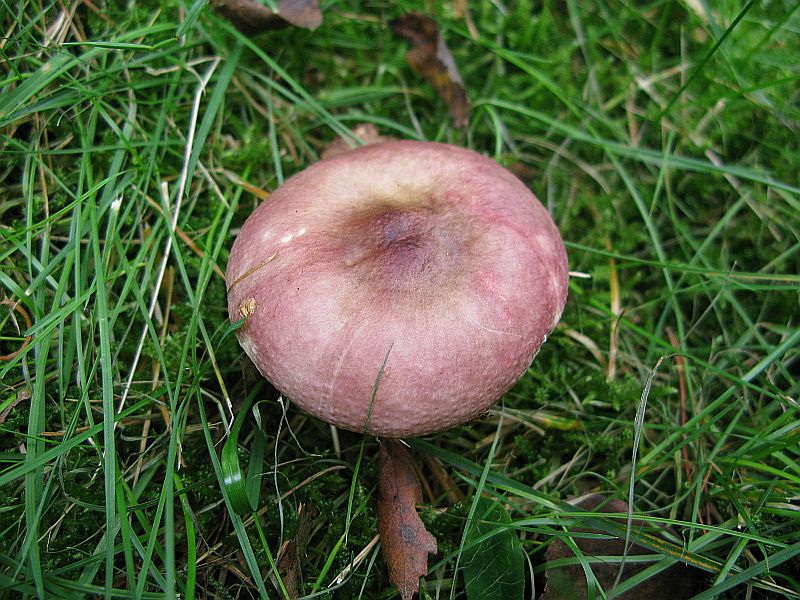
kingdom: Fungi
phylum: Basidiomycota
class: Agaricomycetes
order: Russulales
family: Russulaceae
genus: Russula
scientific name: Russula nitida
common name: året skørhat
